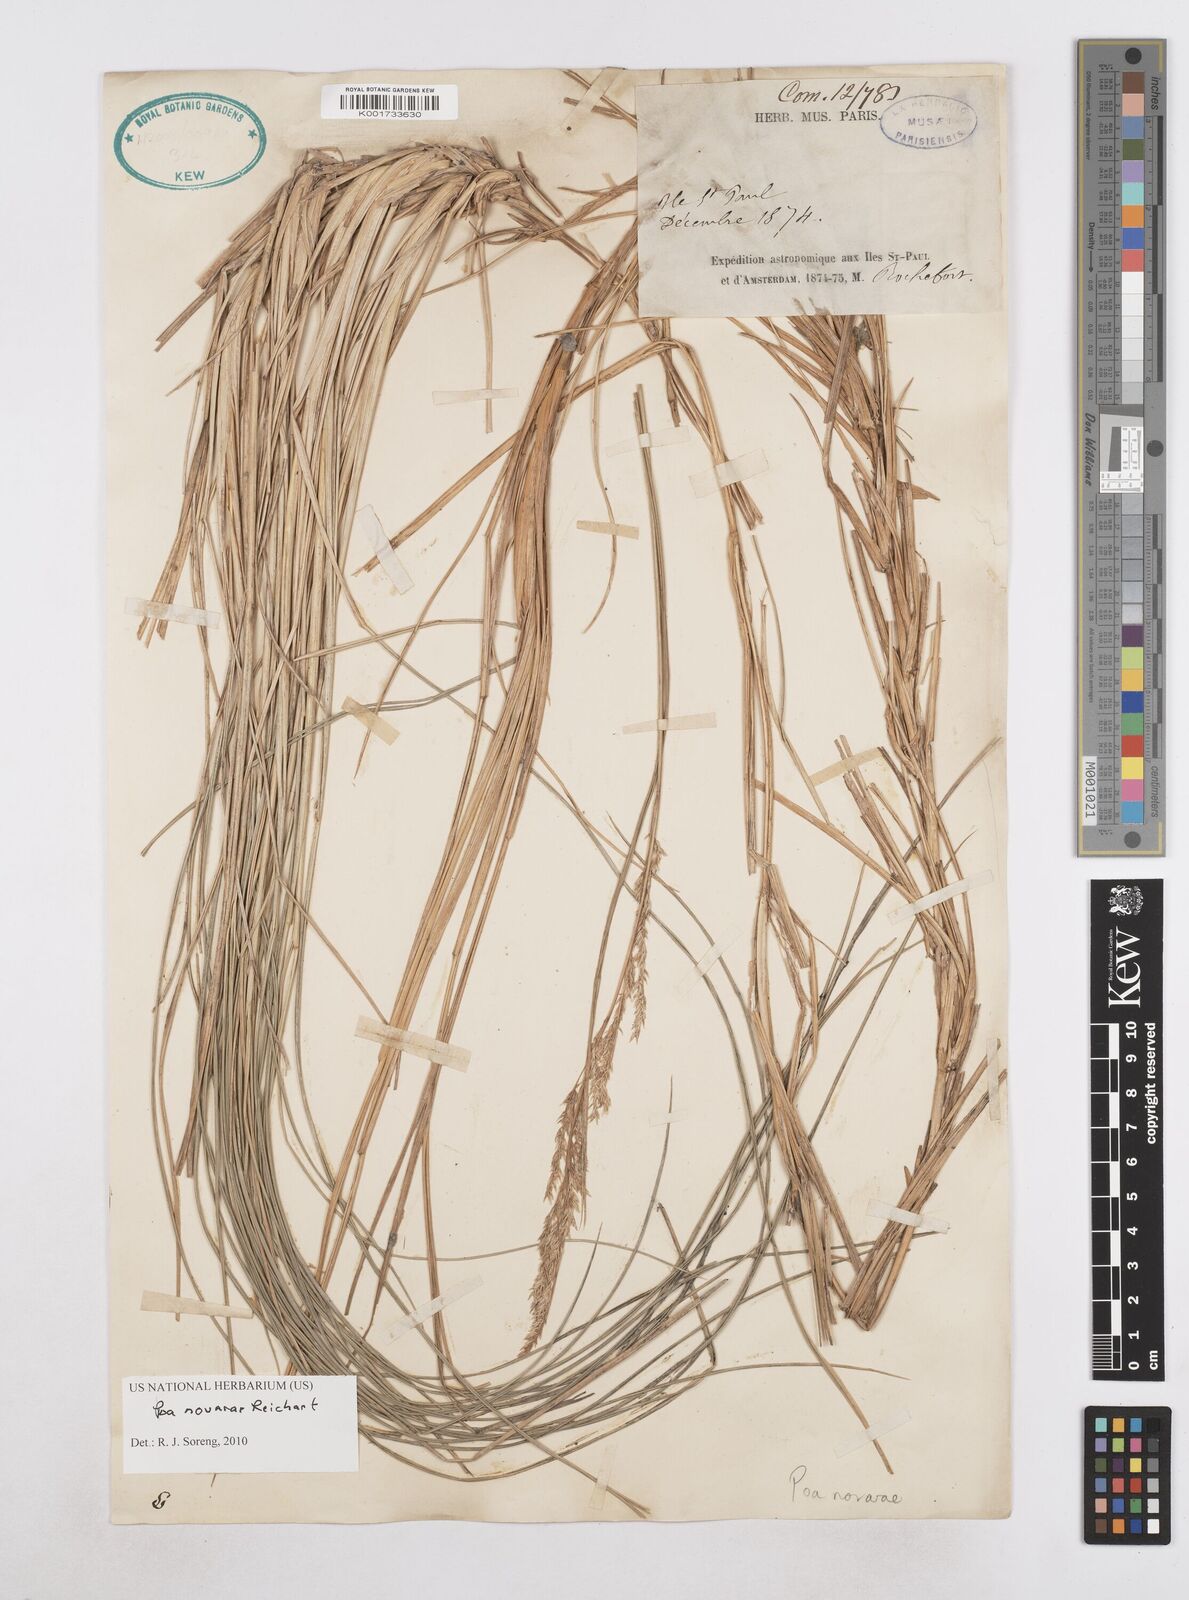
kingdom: Plantae
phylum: Tracheophyta
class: Liliopsida
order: Poales
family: Poaceae
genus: Poa
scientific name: Poa novarae
